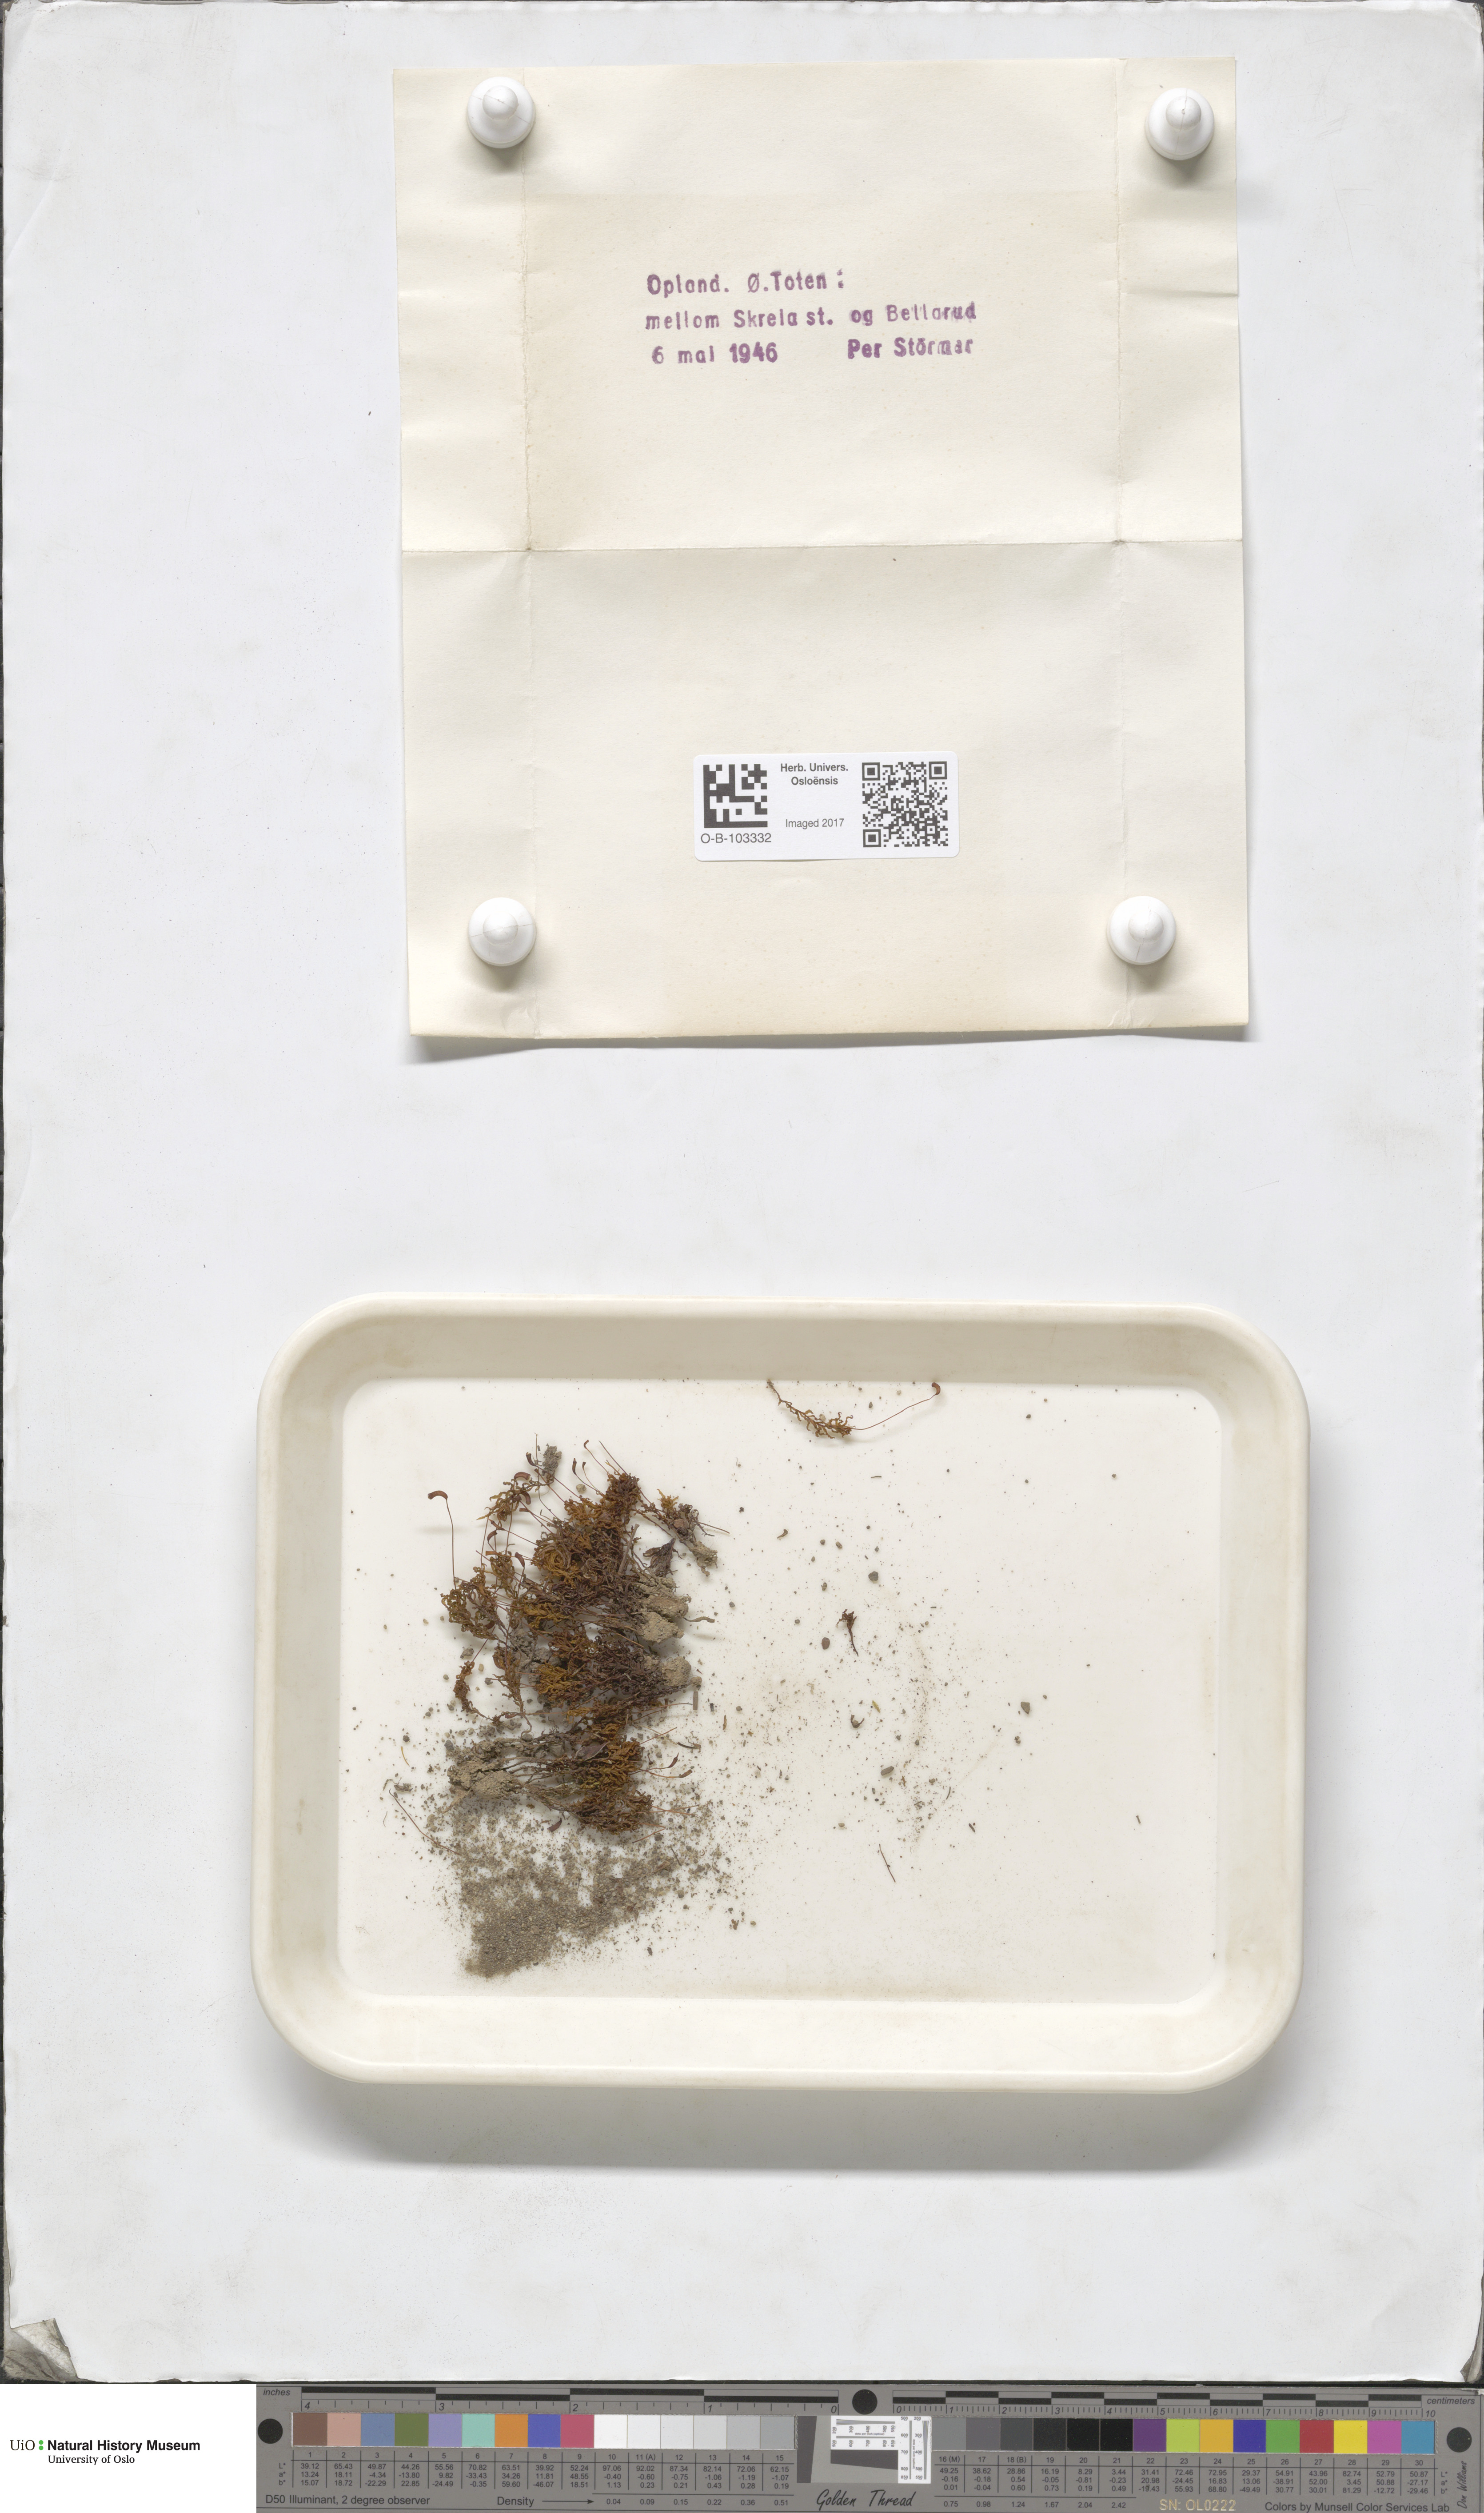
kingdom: Plantae
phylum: Bryophyta
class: Polytrichopsida
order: Polytrichales
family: Polytrichaceae
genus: Atrichum
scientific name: Atrichum undulatum
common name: Common smoothcap
